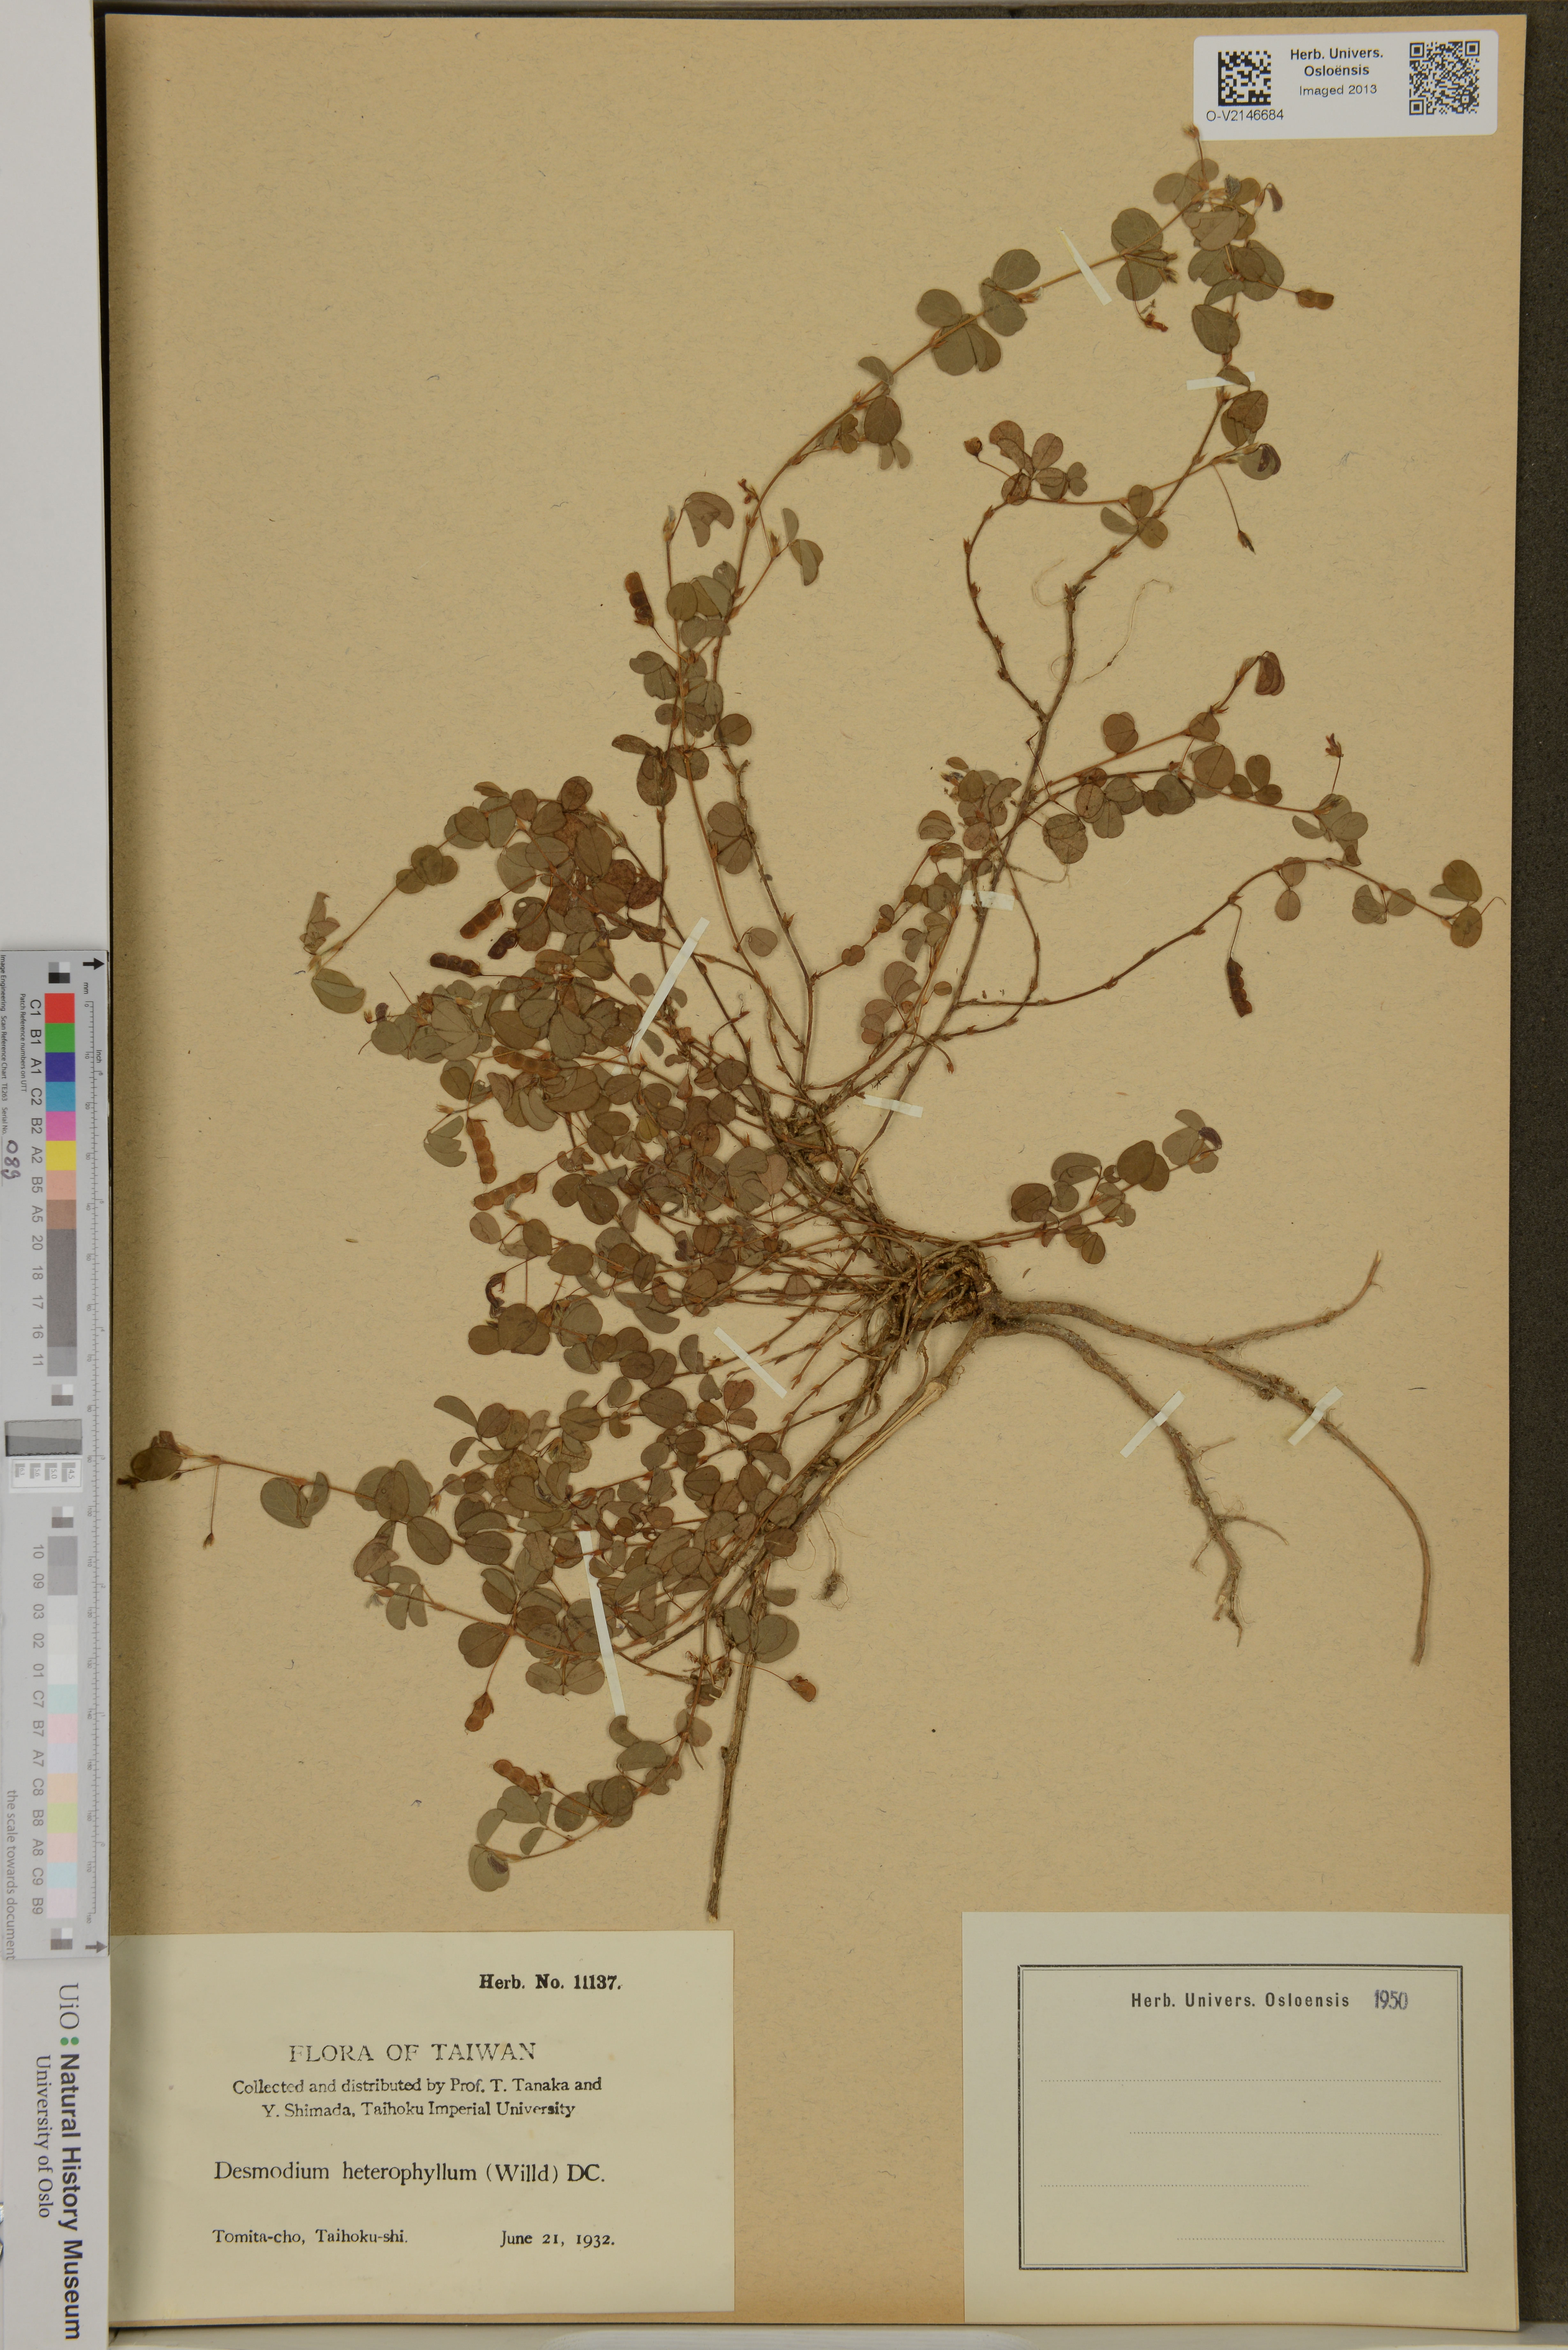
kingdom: Plantae
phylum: Tracheophyta
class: Magnoliopsida
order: Fabales
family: Fabaceae
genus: Grona
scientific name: Grona heterophylla
